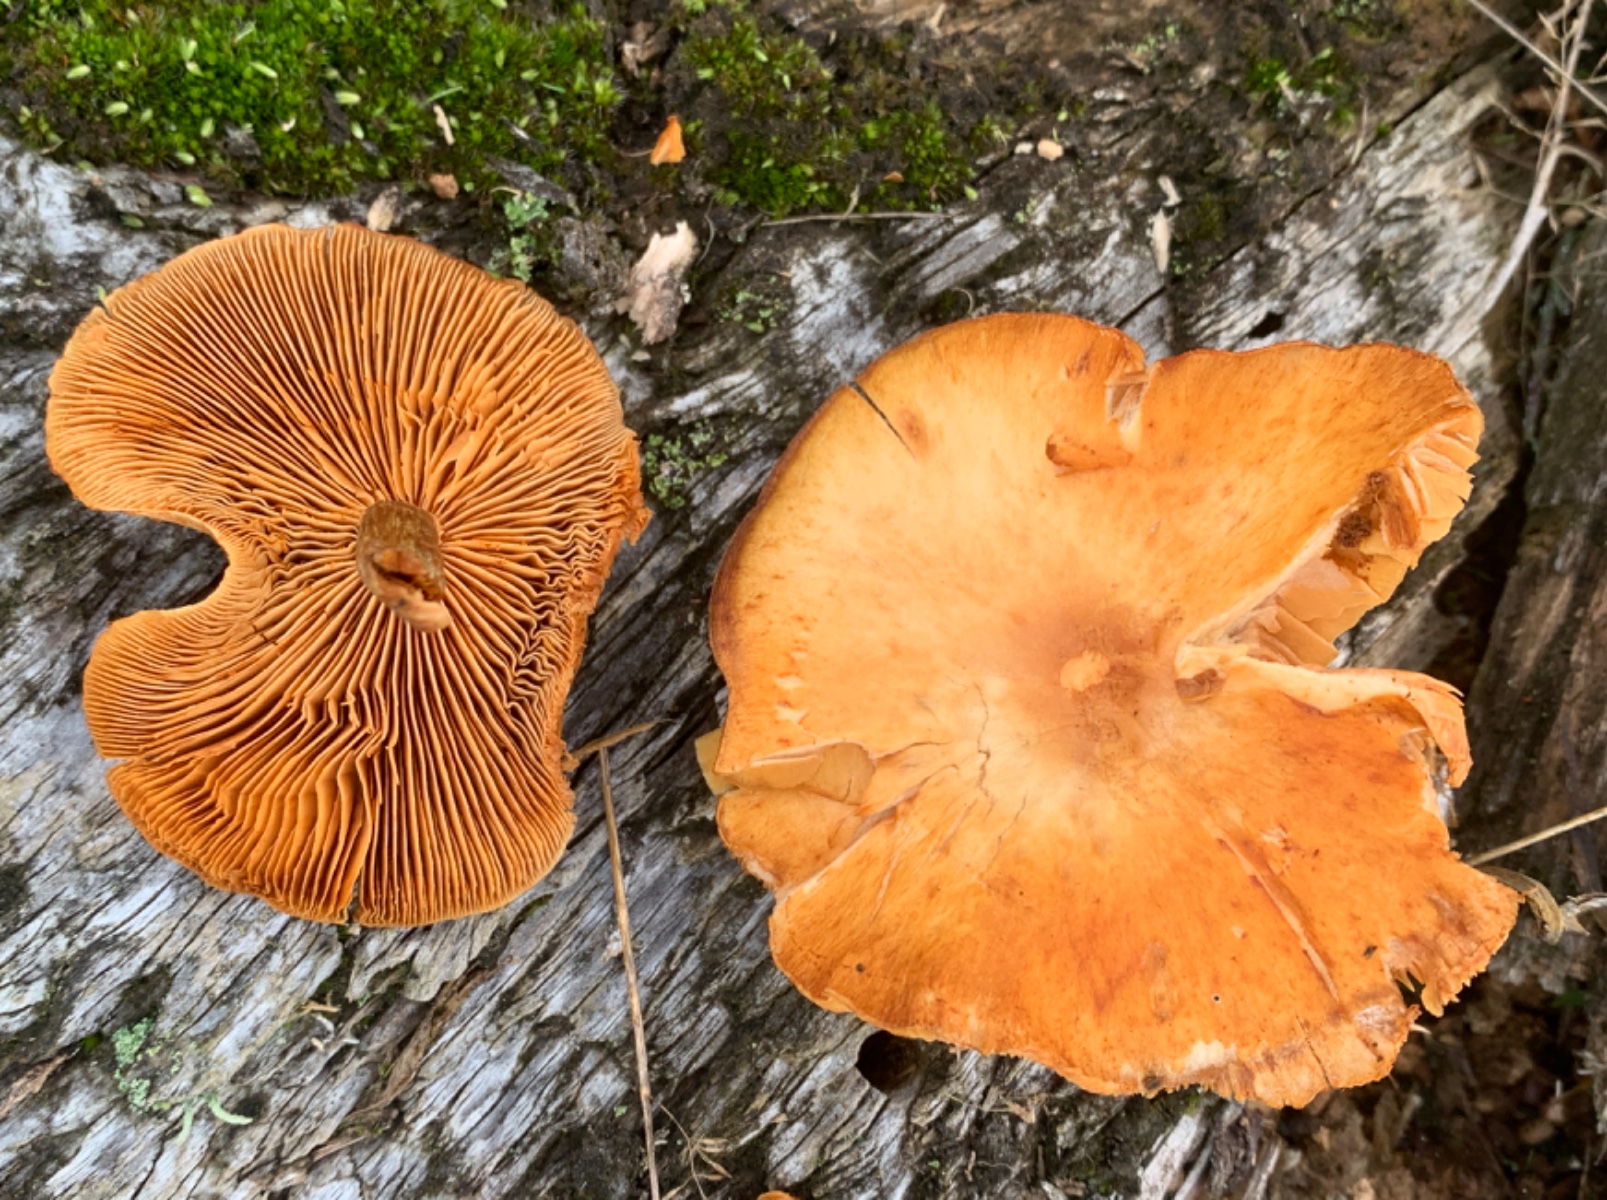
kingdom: Fungi
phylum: Basidiomycota
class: Agaricomycetes
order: Agaricales
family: Hymenogastraceae
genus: Gymnopilus
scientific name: Gymnopilus spectabilis
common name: fibret flammehat
